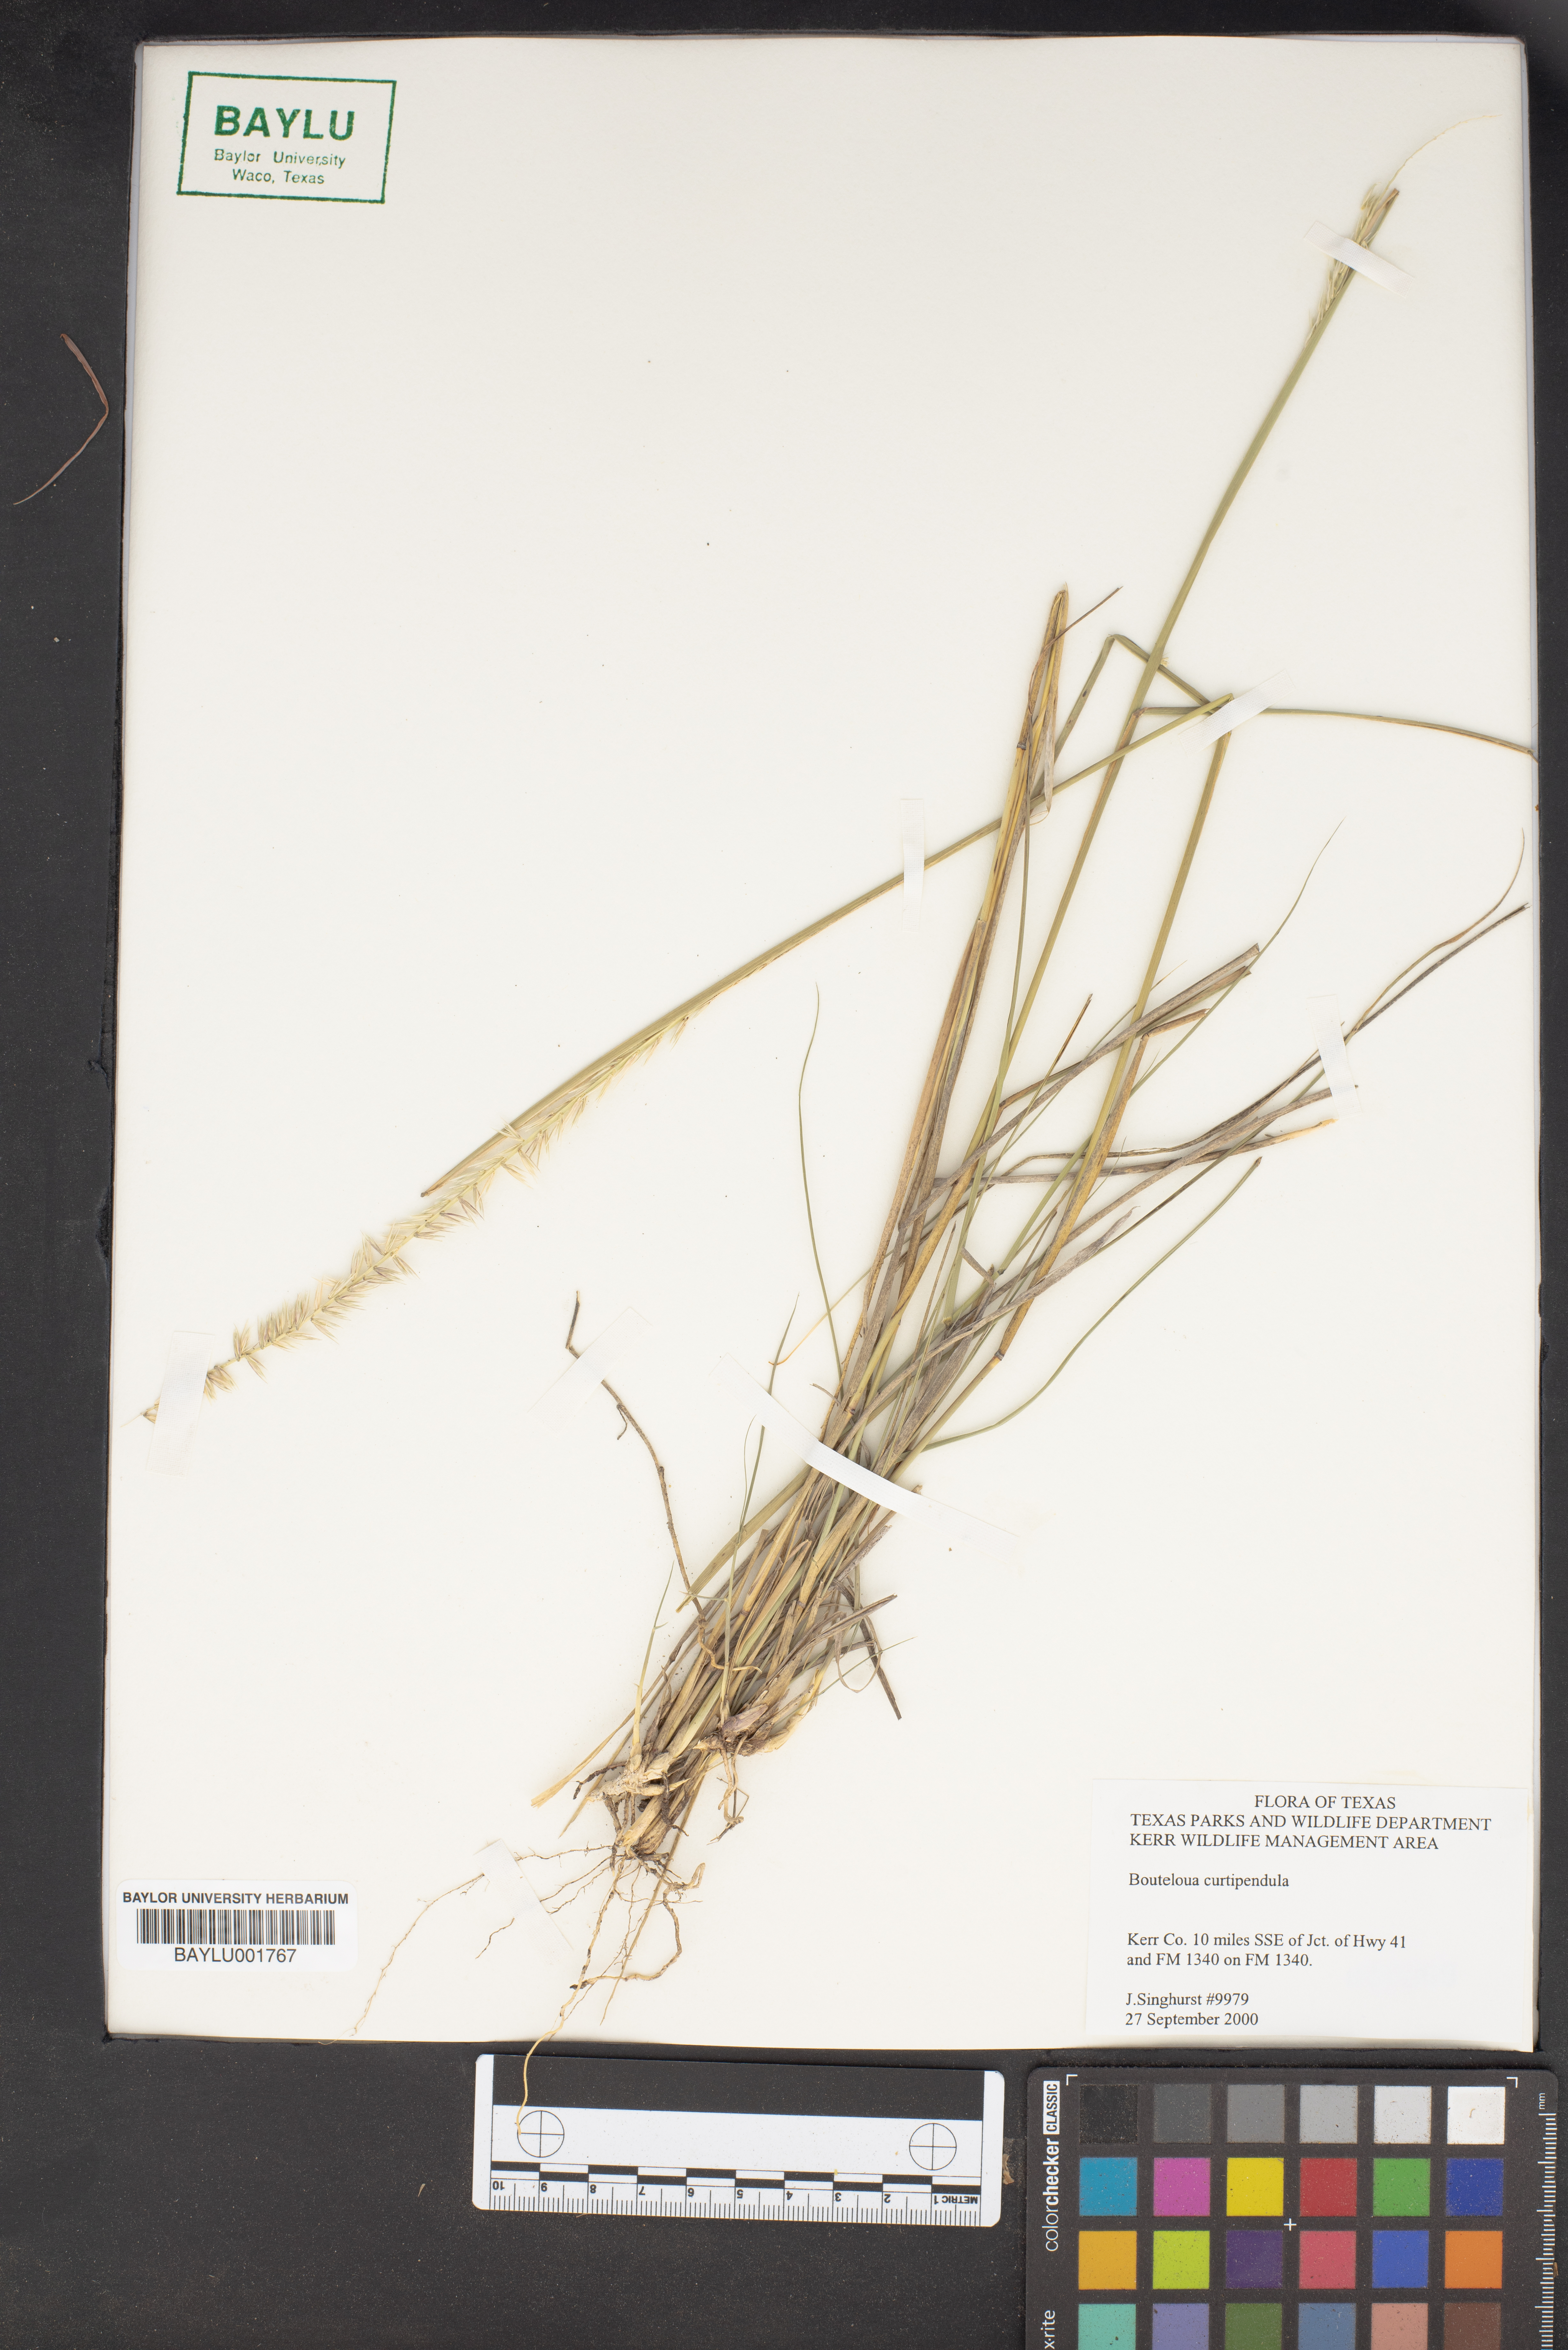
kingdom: Plantae
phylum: Tracheophyta
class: Liliopsida
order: Poales
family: Poaceae
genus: Bouteloua
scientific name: Bouteloua curtipendula
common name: Side-oats grama
